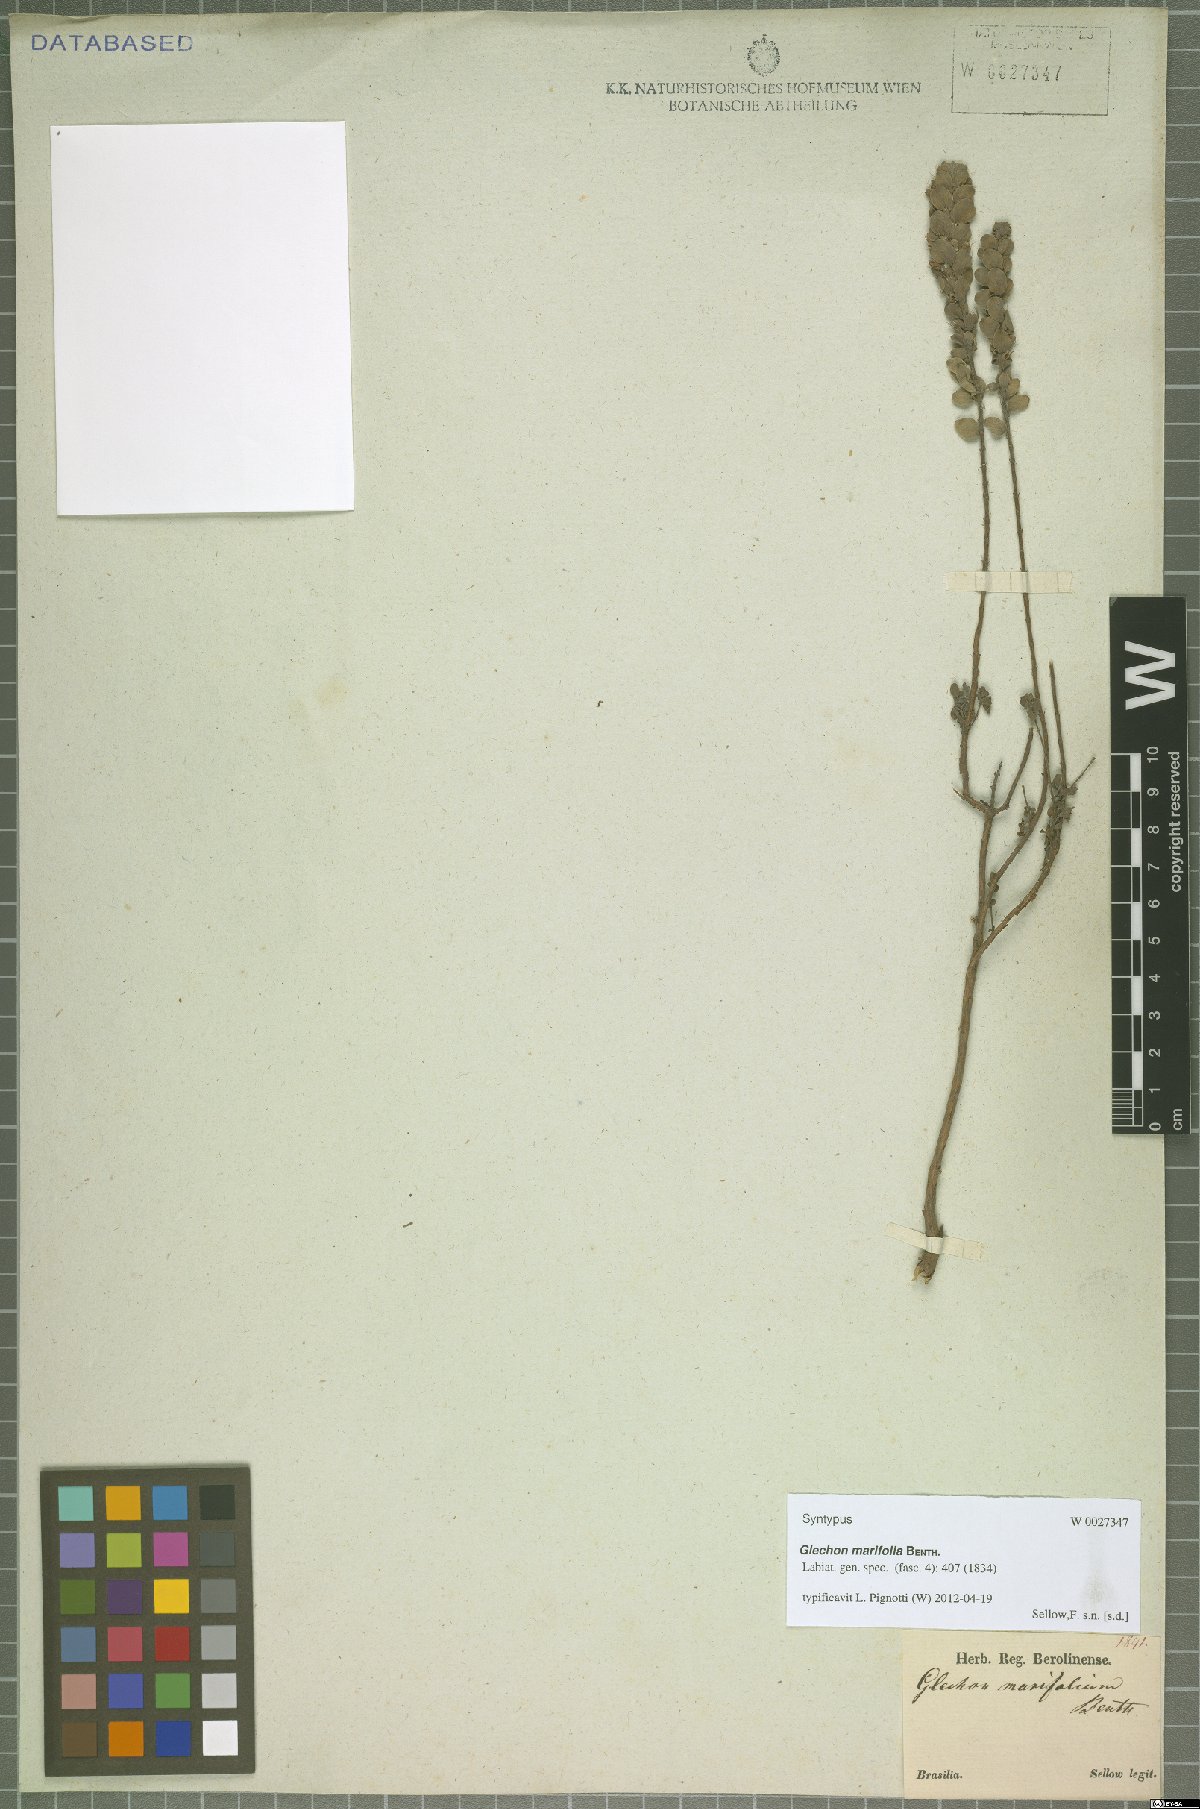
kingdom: Plantae
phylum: Tracheophyta
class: Magnoliopsida
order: Lamiales
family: Lamiaceae
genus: Glechon
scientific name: Glechon marifolia
